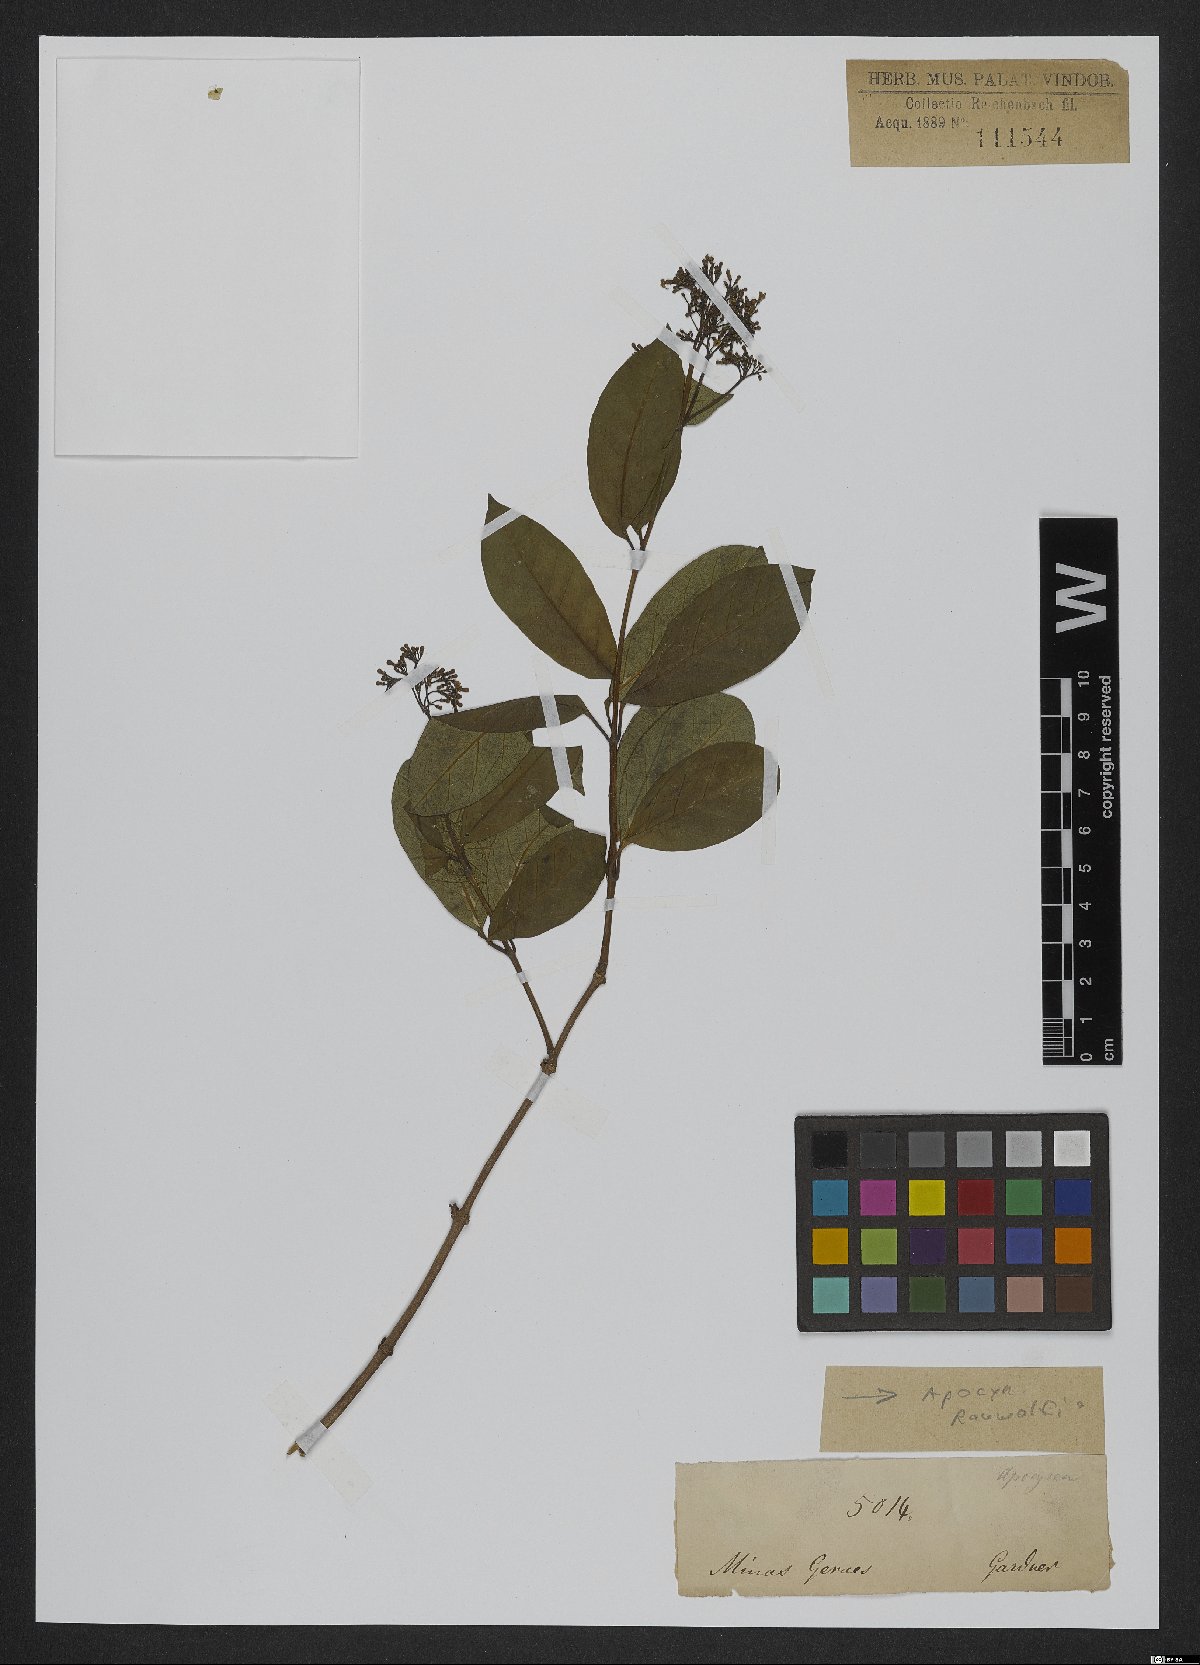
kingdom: Plantae
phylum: Tracheophyta
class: Magnoliopsida
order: Gentianales
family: Apocynaceae
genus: Rauvolfia
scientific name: Rauvolfia
